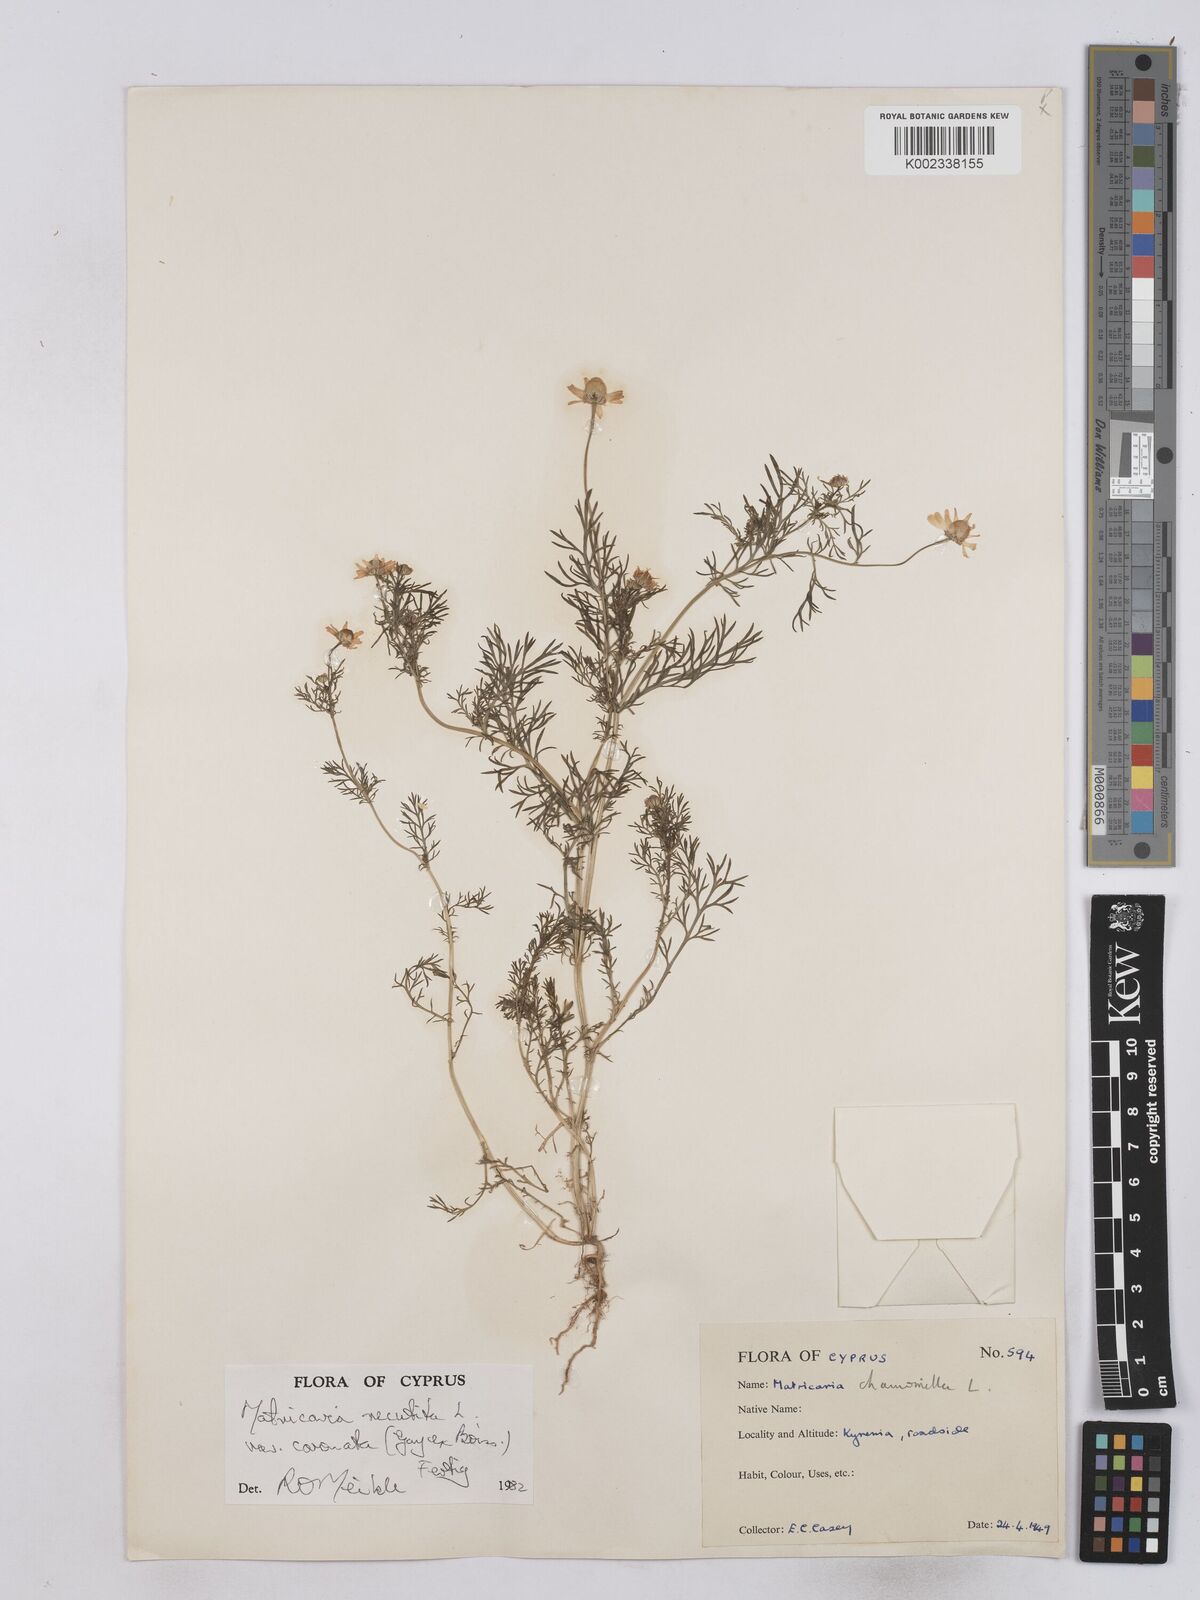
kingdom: Plantae
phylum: Tracheophyta
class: Magnoliopsida
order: Asterales
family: Asteraceae
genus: Matricaria
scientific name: Matricaria chamomilla
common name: Scented mayweed
